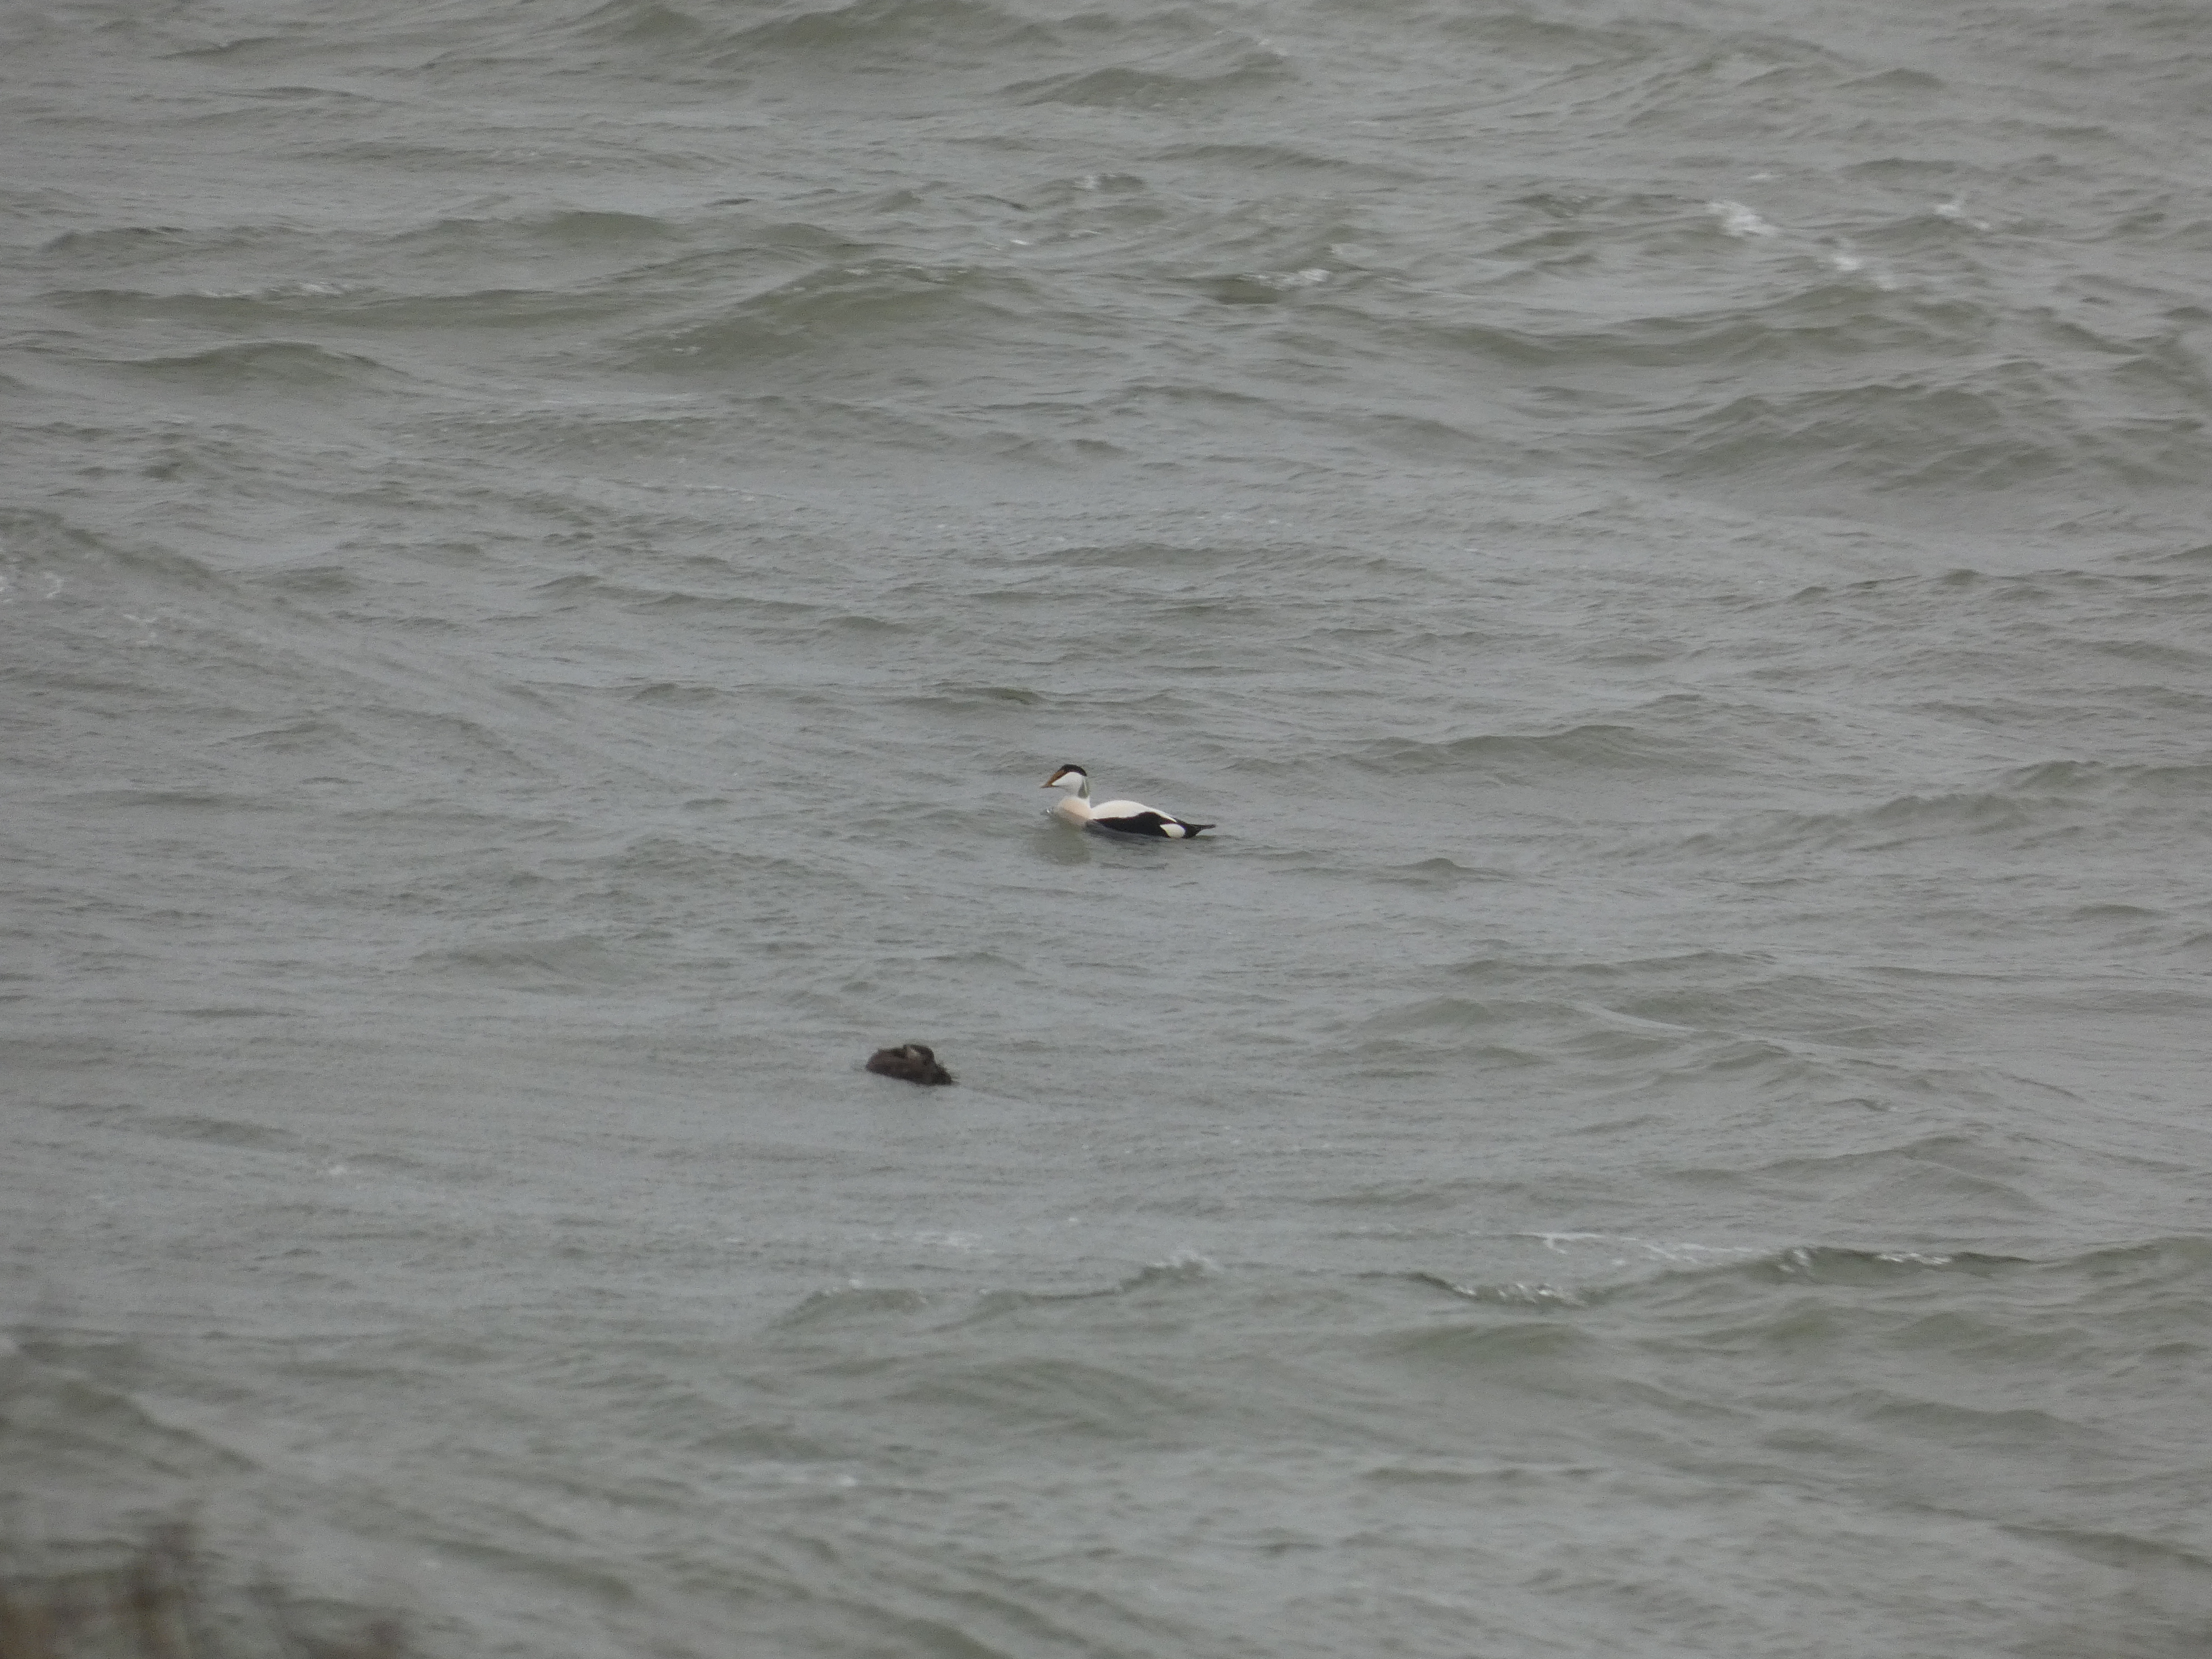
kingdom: Animalia
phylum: Chordata
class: Aves
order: Anseriformes
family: Anatidae
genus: Somateria
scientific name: Somateria mollissima
